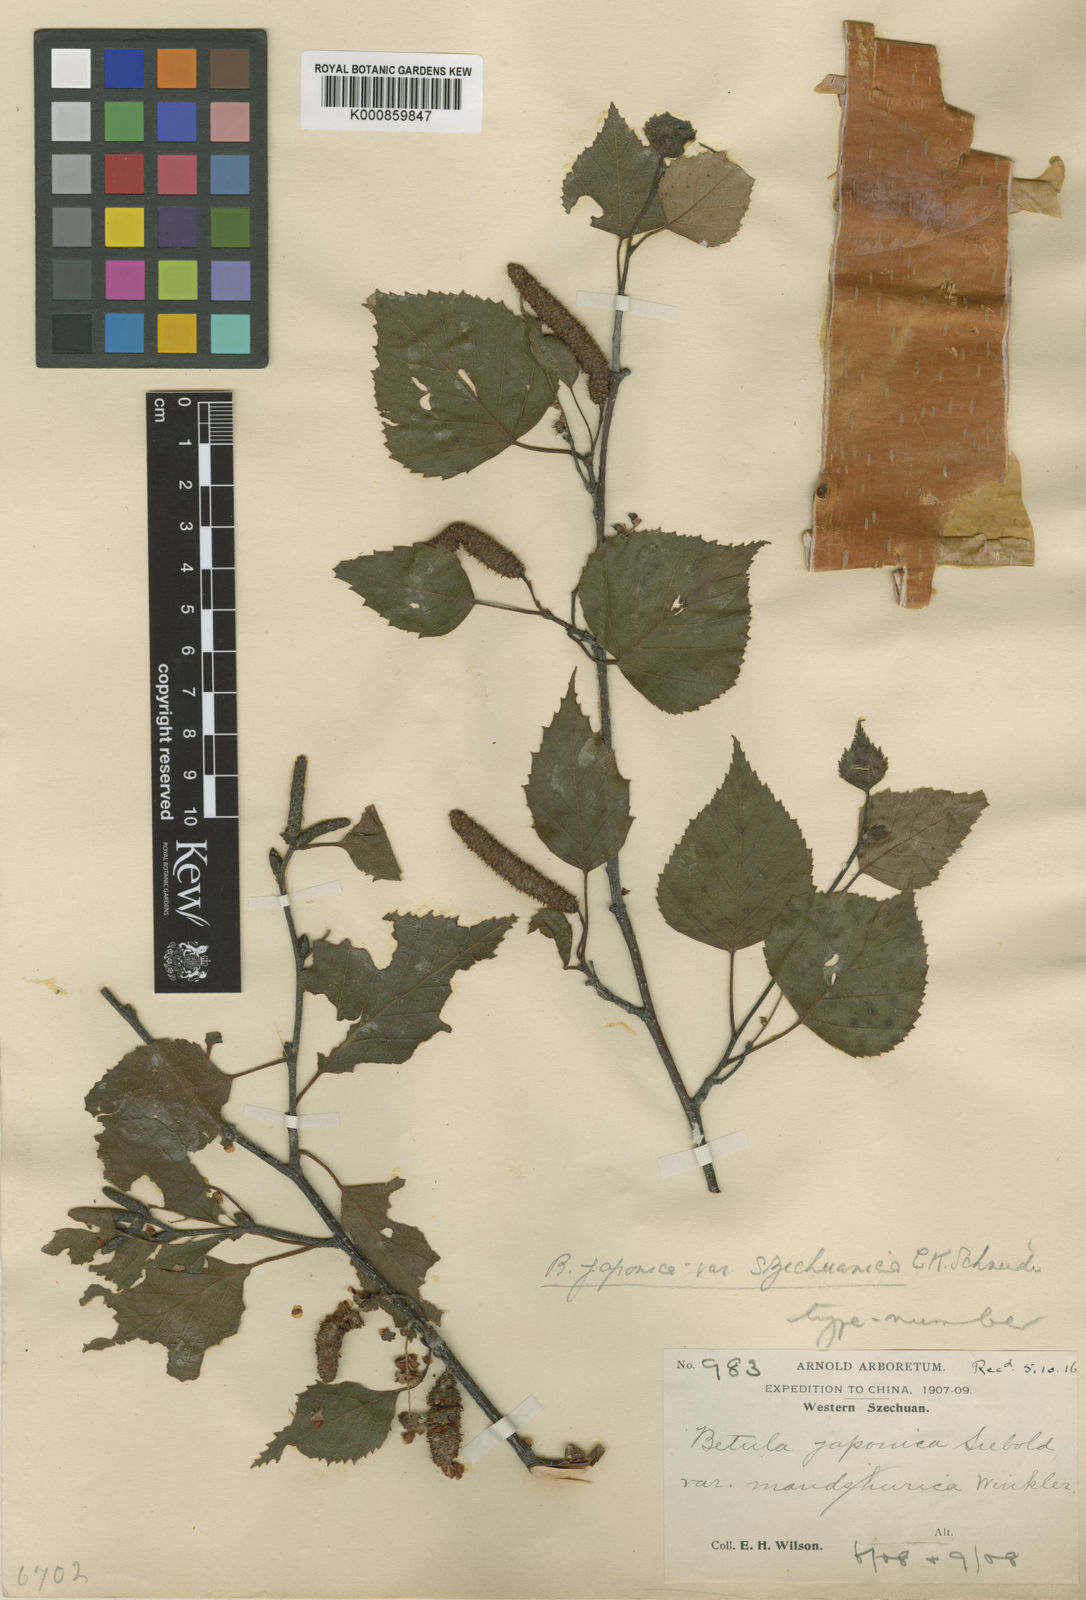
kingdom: Plantae
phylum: Tracheophyta
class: Magnoliopsida
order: Fagales
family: Betulaceae
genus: Betula
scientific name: Betula pendula
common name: Silver birch
